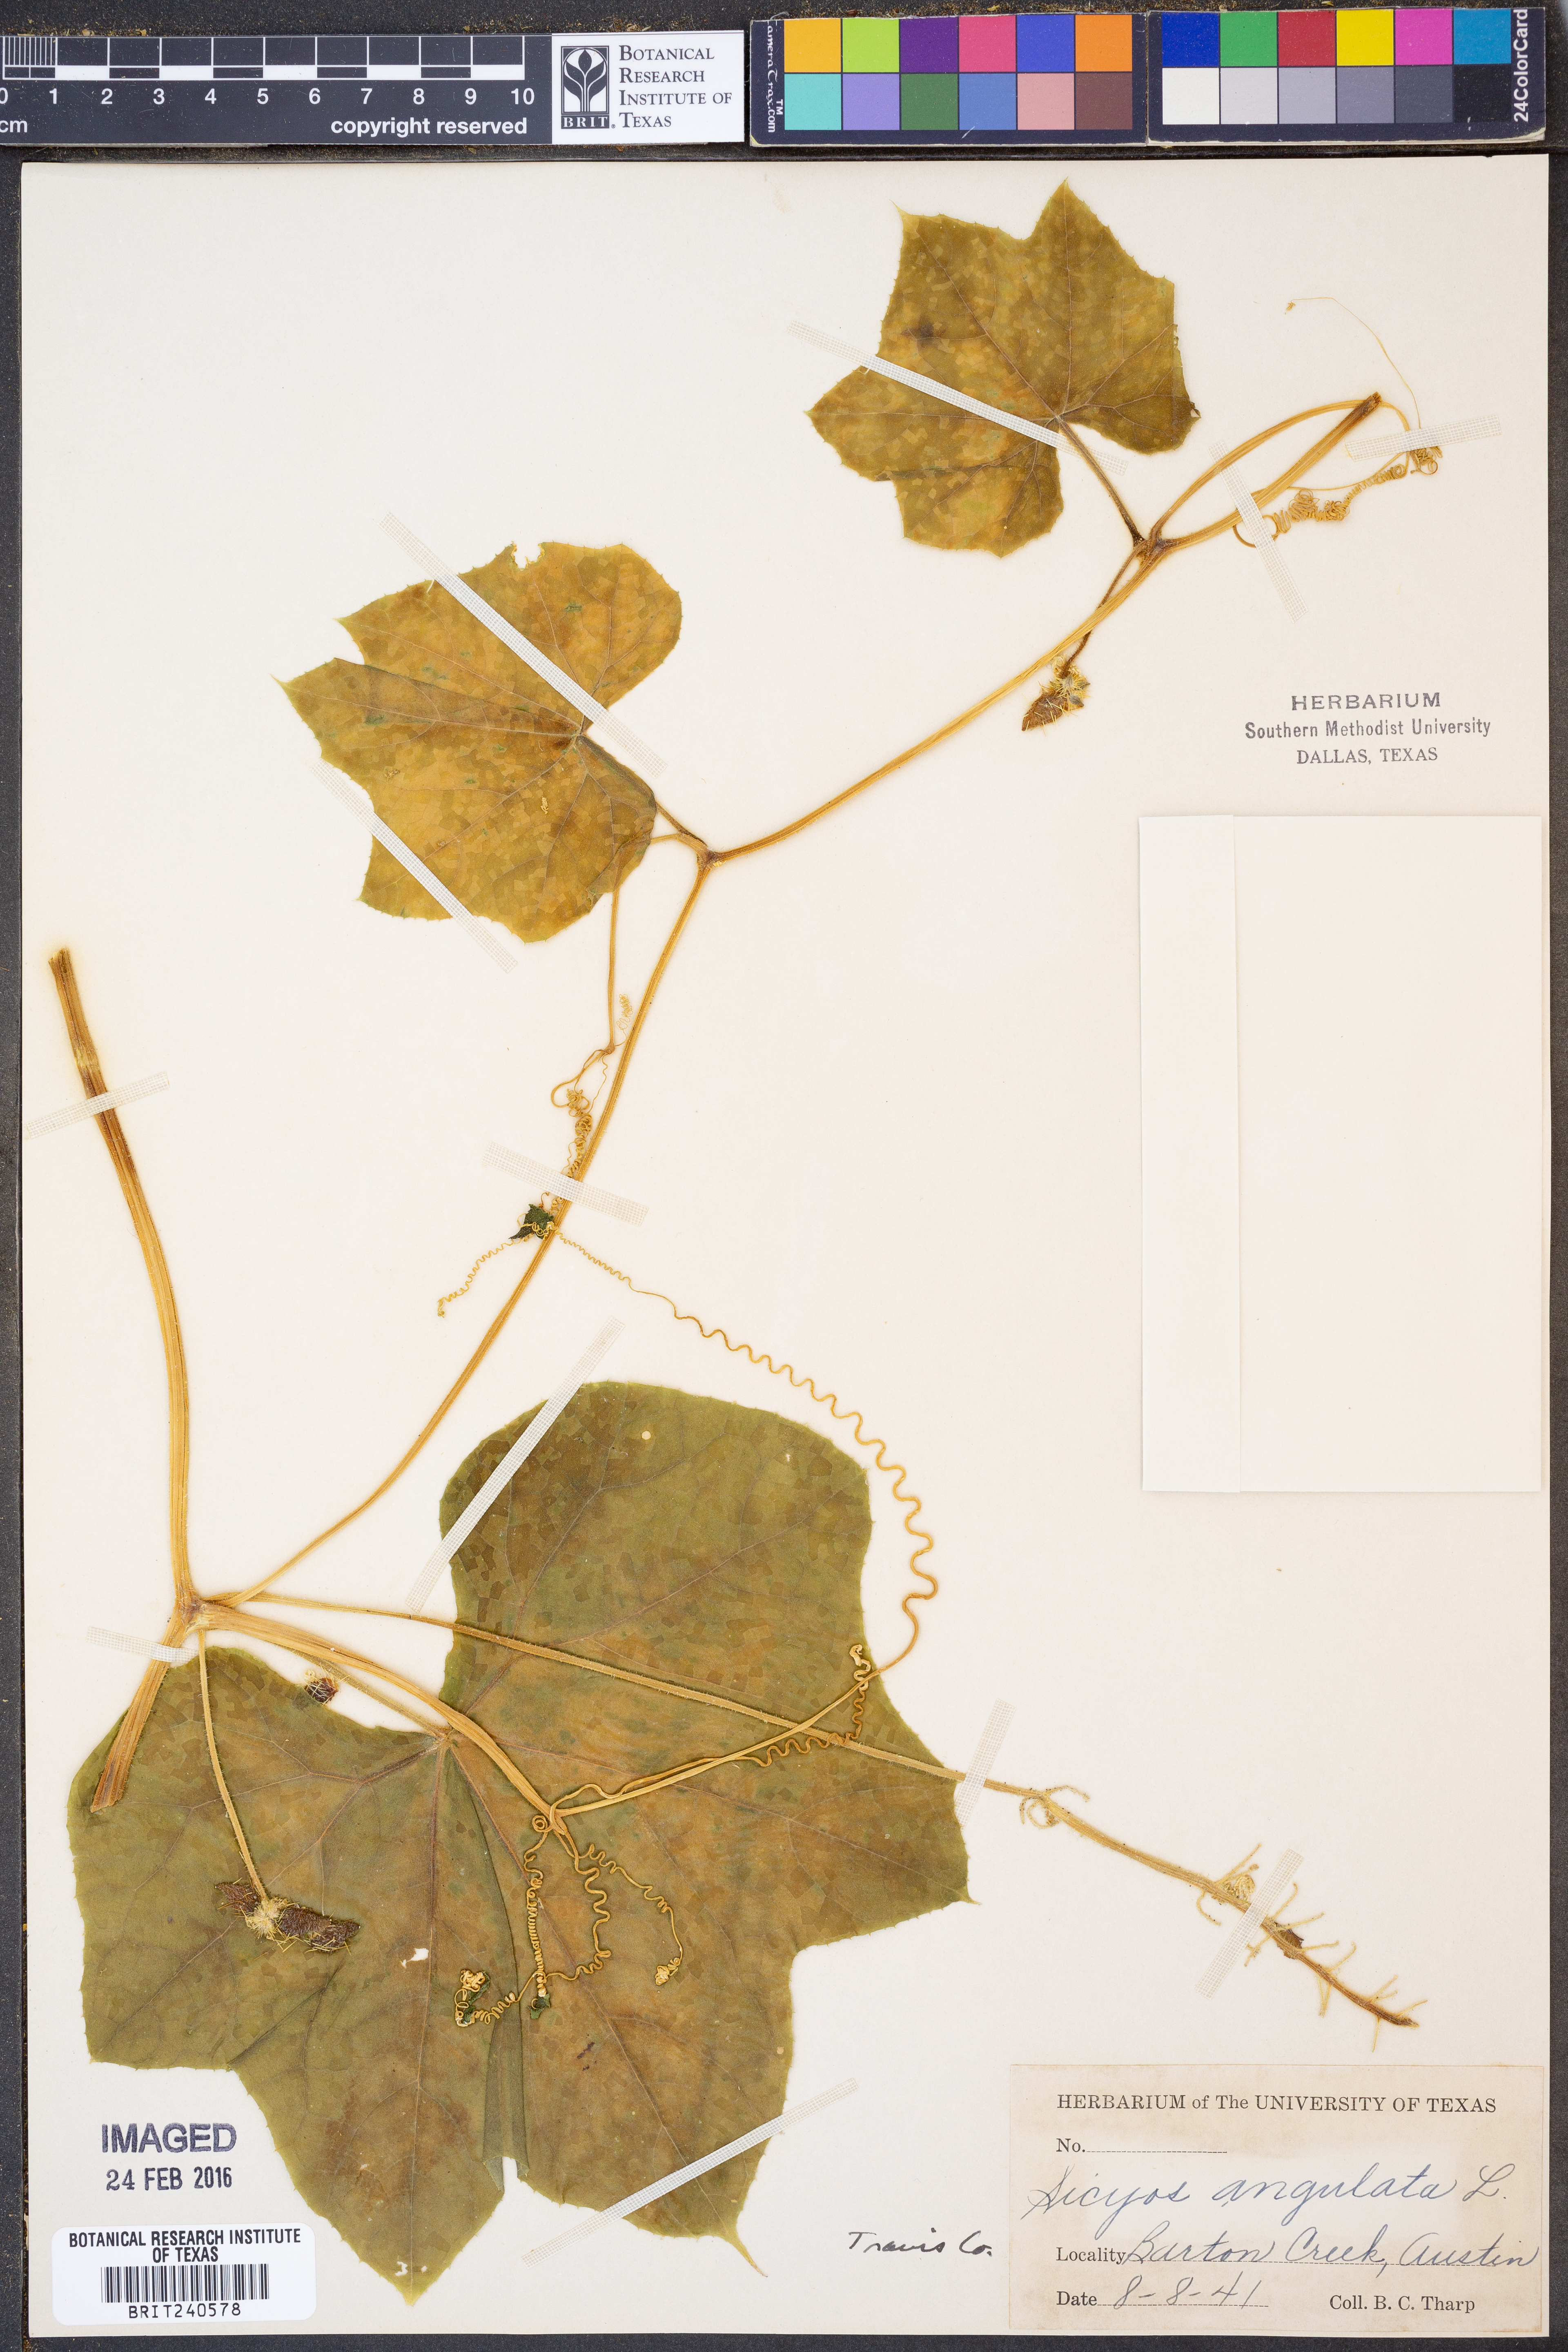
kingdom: Plantae
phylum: Tracheophyta
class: Magnoliopsida
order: Cucurbitales
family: Cucurbitaceae
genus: Sicyos
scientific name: Sicyos angulatus
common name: Angled burr cucumber
